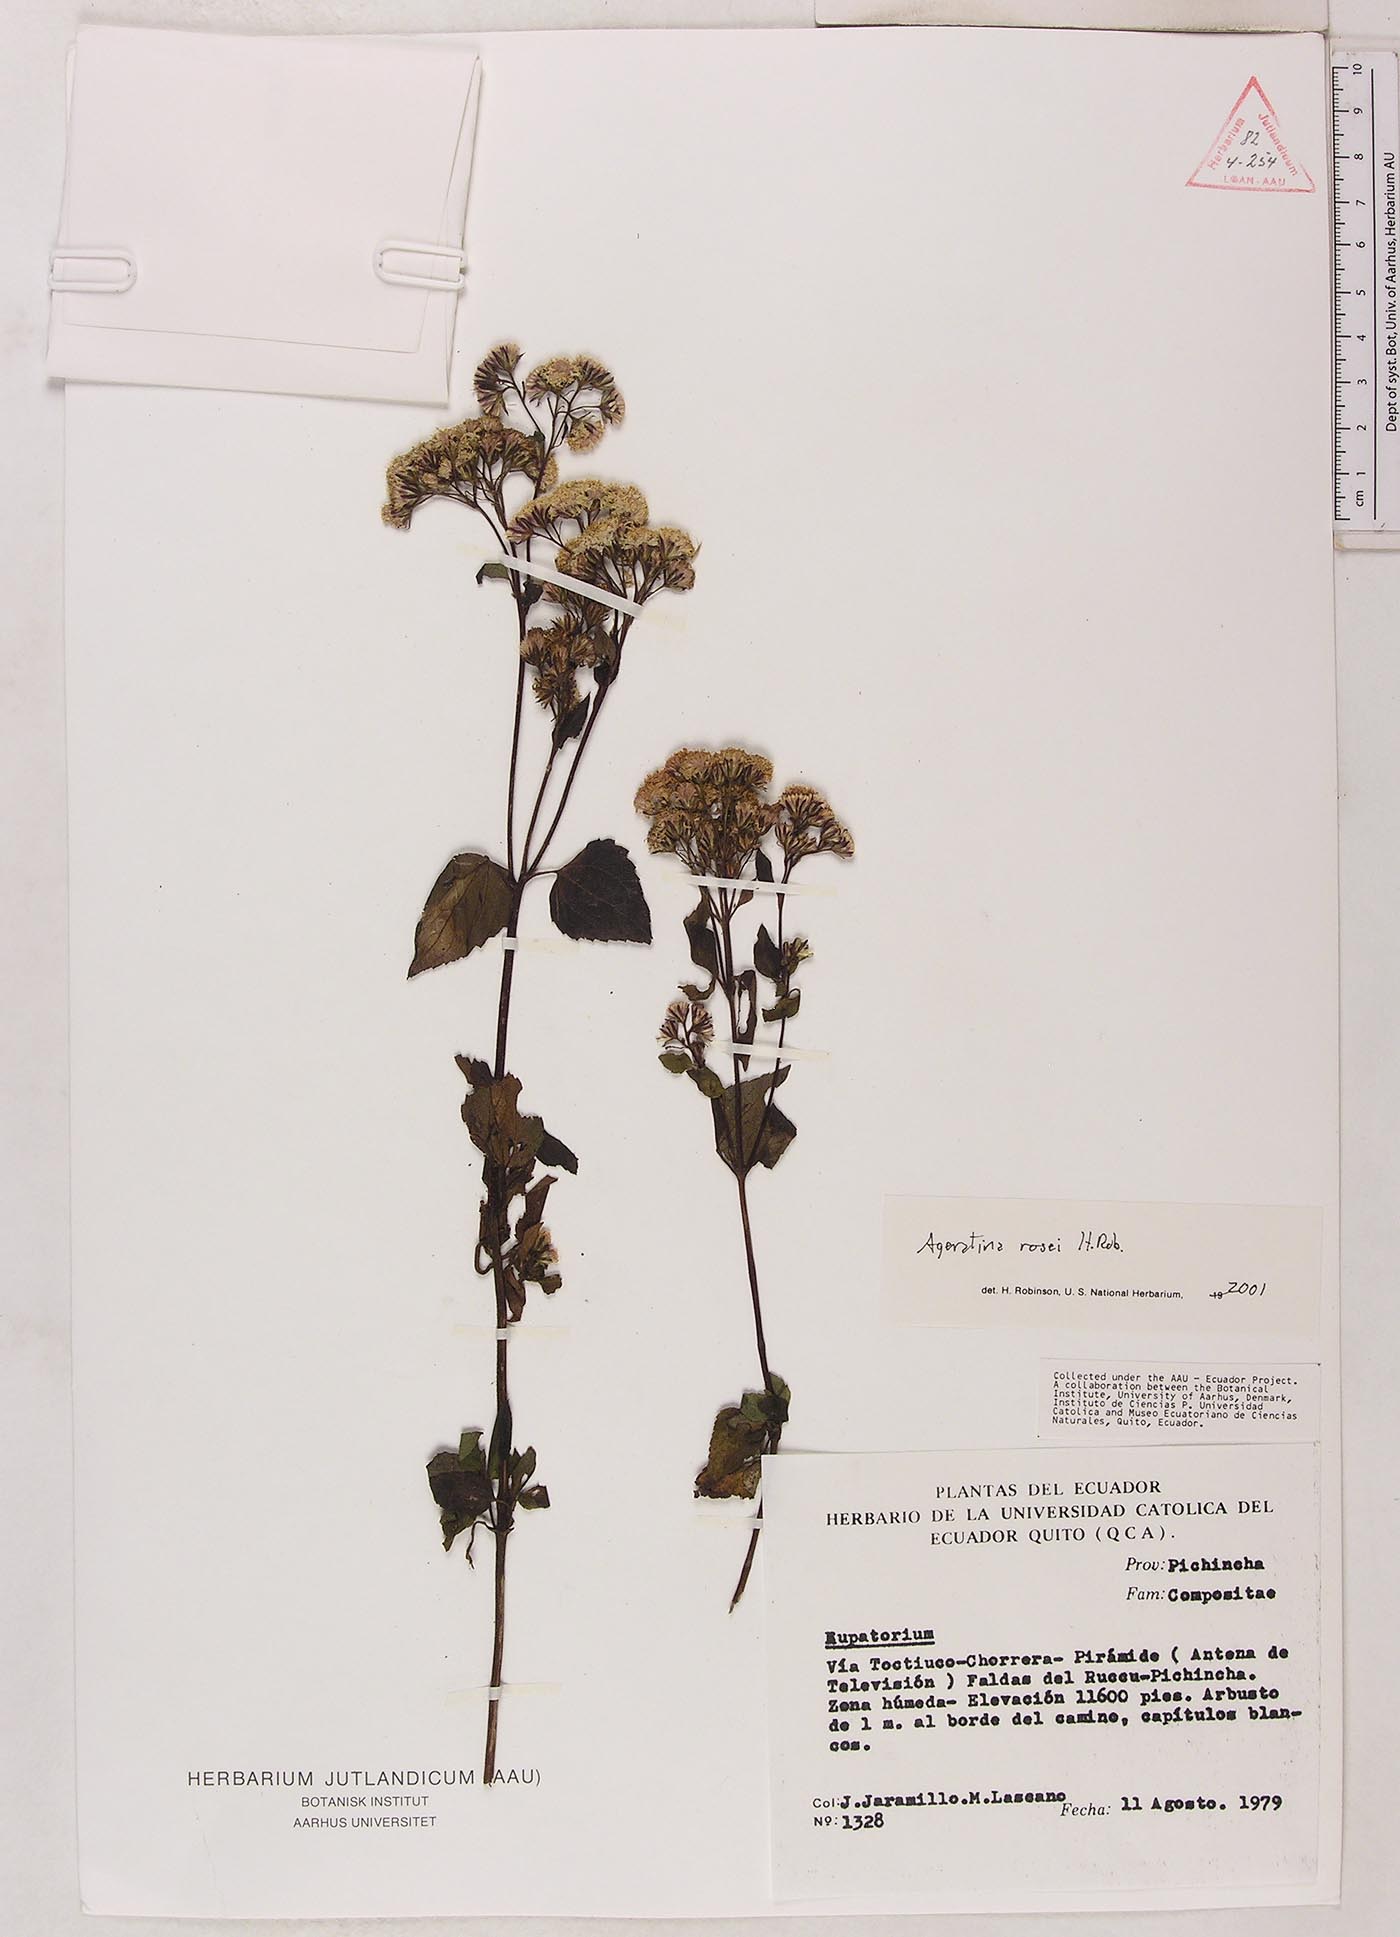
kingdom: Plantae
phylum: Tracheophyta
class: Magnoliopsida
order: Asterales
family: Asteraceae
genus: Ageratina
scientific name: Ageratina rosei
